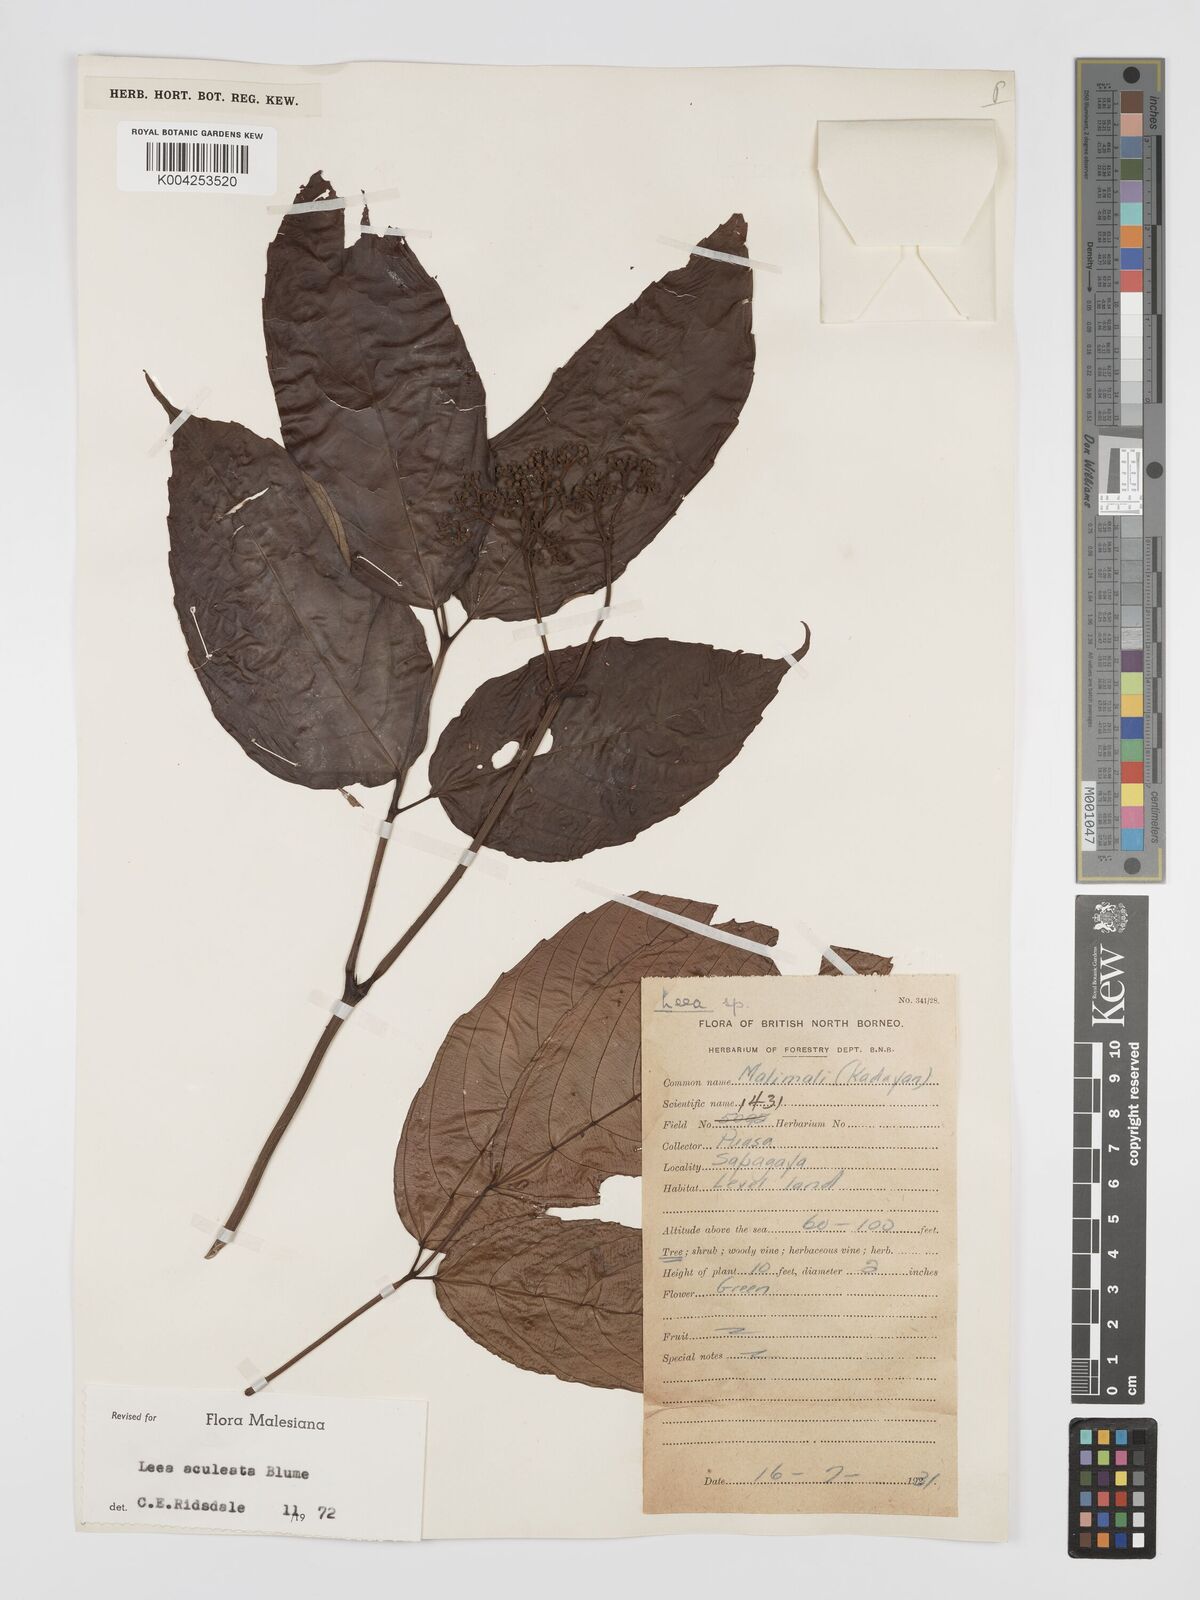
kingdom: Plantae
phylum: Tracheophyta
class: Magnoliopsida
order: Vitales
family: Vitaceae
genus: Leea
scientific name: Leea aculeata
